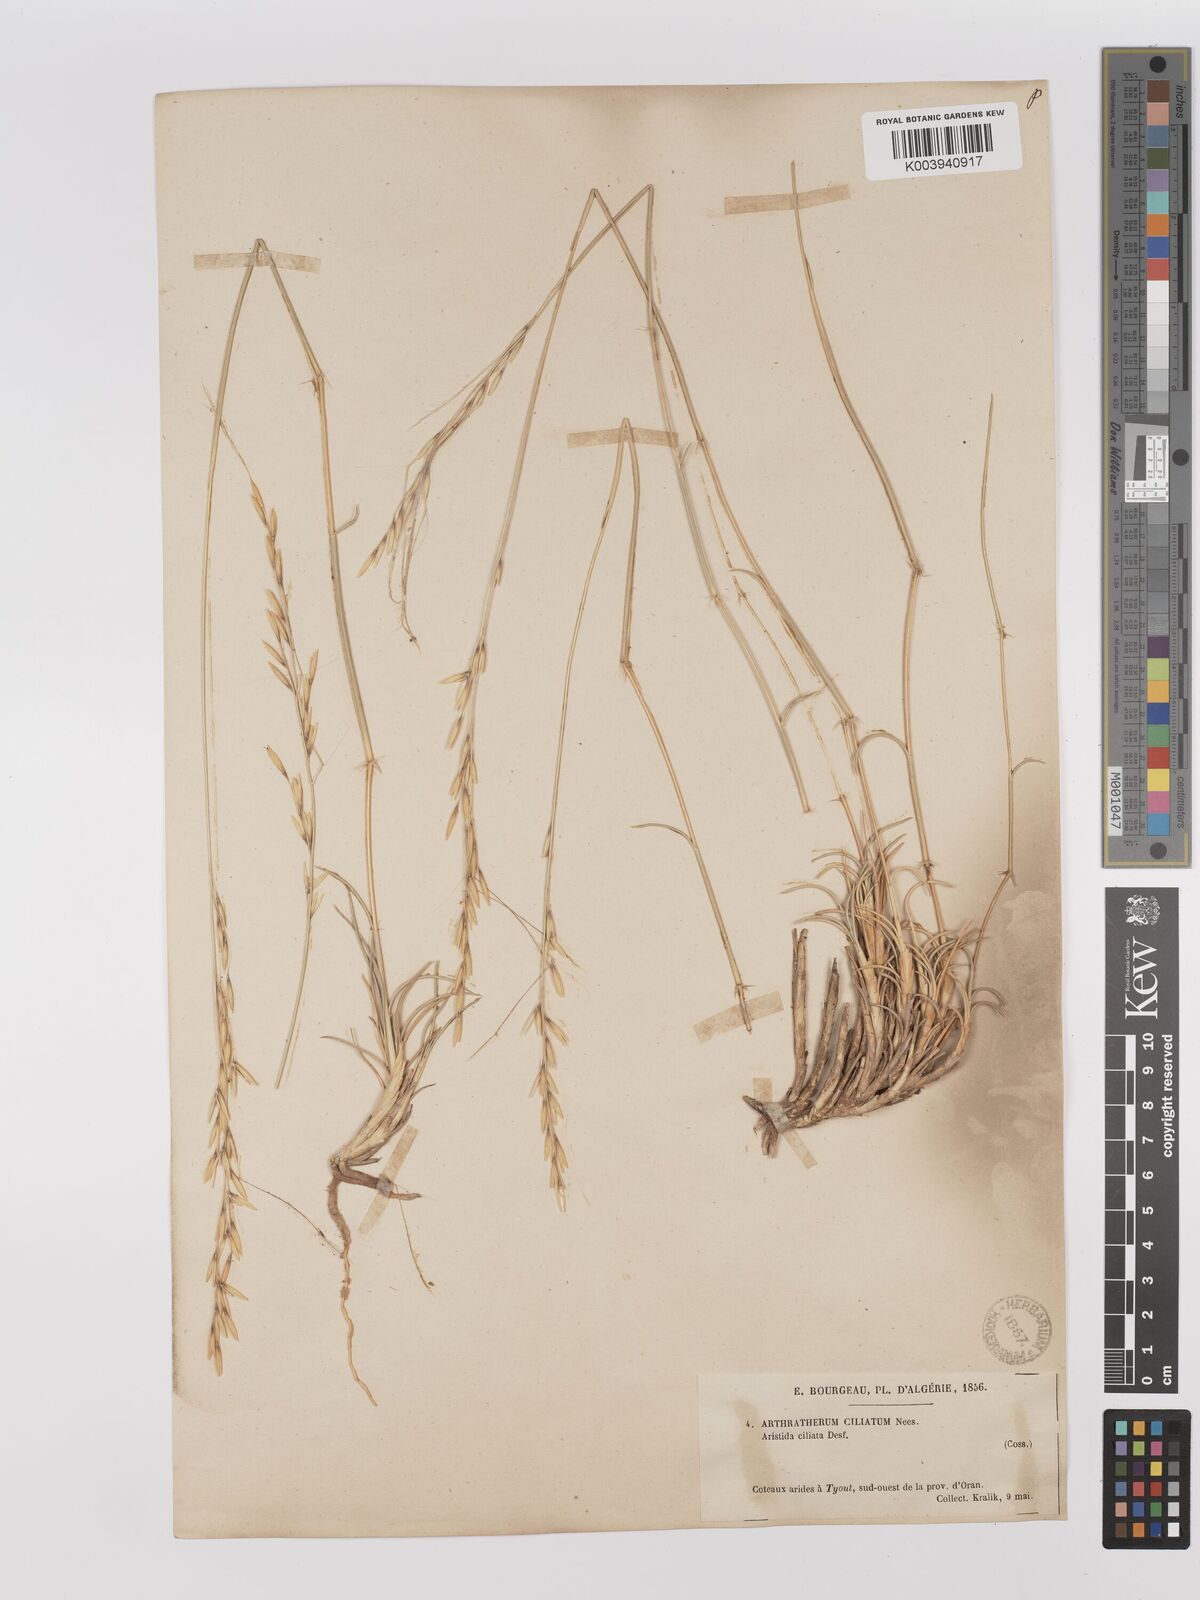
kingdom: Plantae
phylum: Tracheophyta
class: Liliopsida
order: Poales
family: Poaceae
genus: Stipagrostis
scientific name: Stipagrostis ciliata
